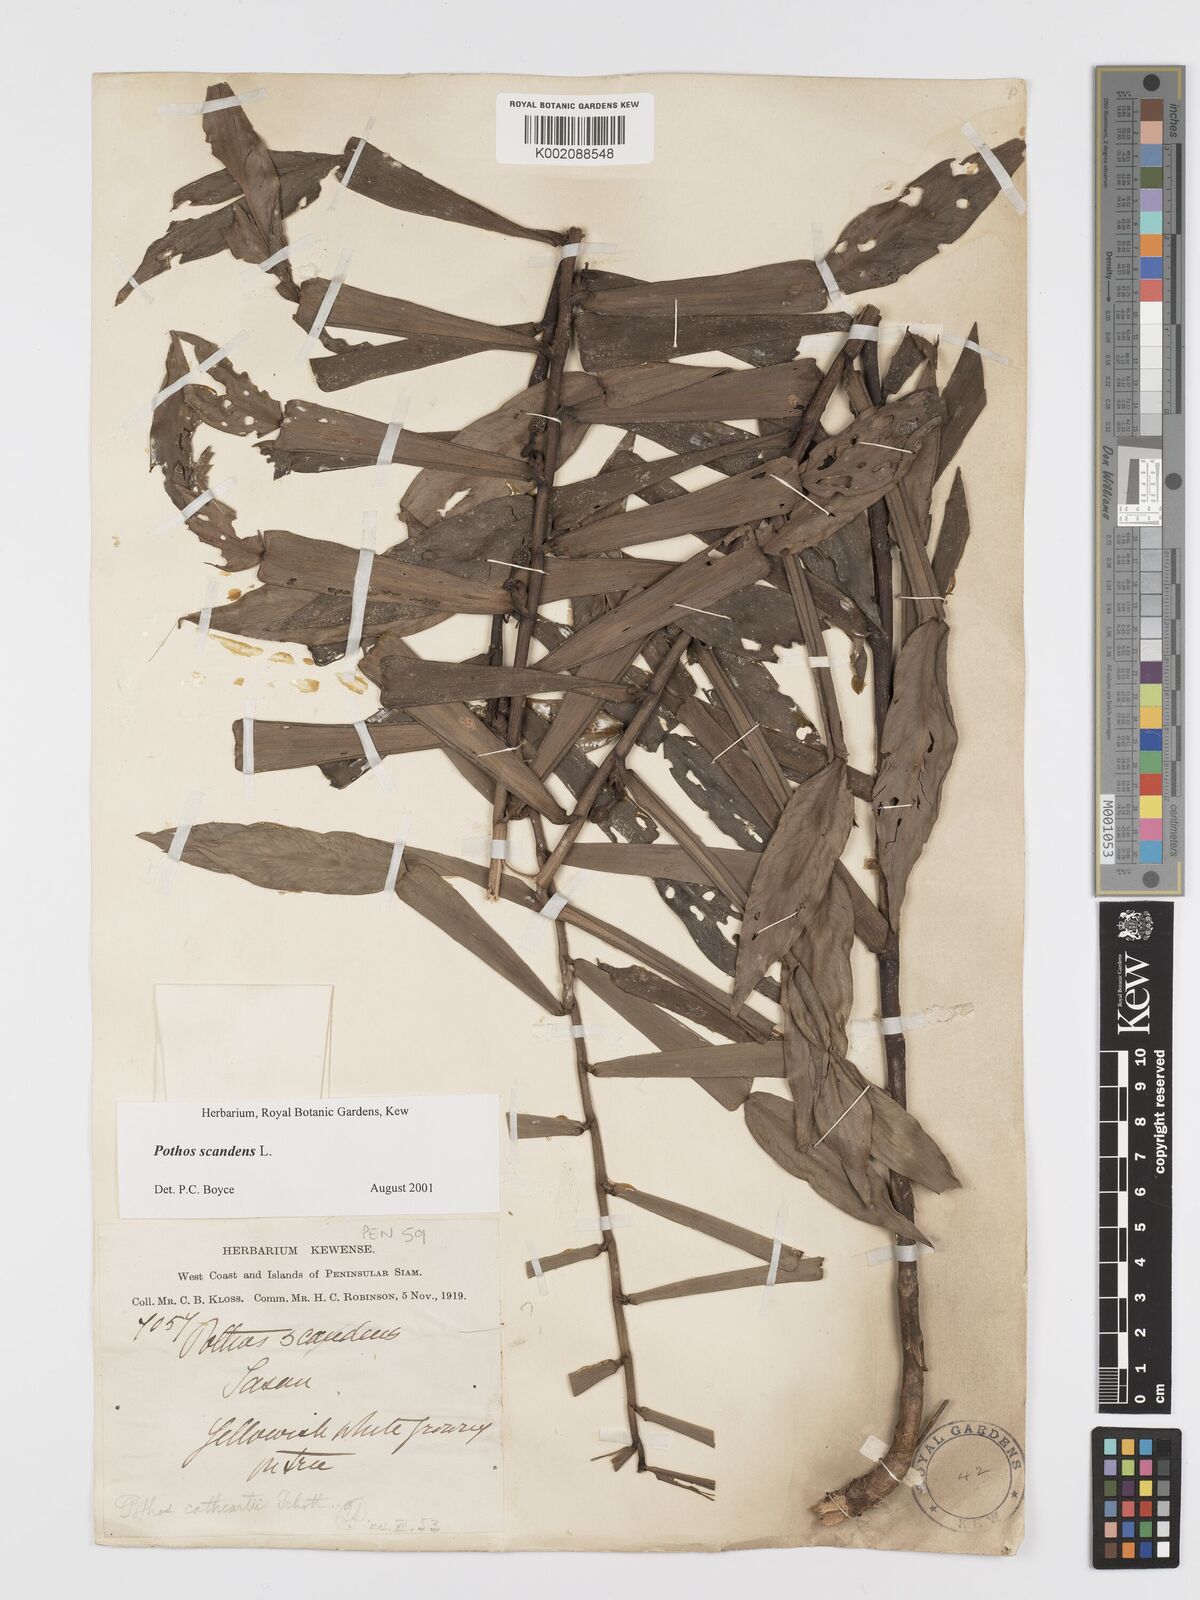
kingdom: Plantae
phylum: Tracheophyta
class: Liliopsida
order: Alismatales
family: Araceae
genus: Pothos
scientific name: Pothos scandens
